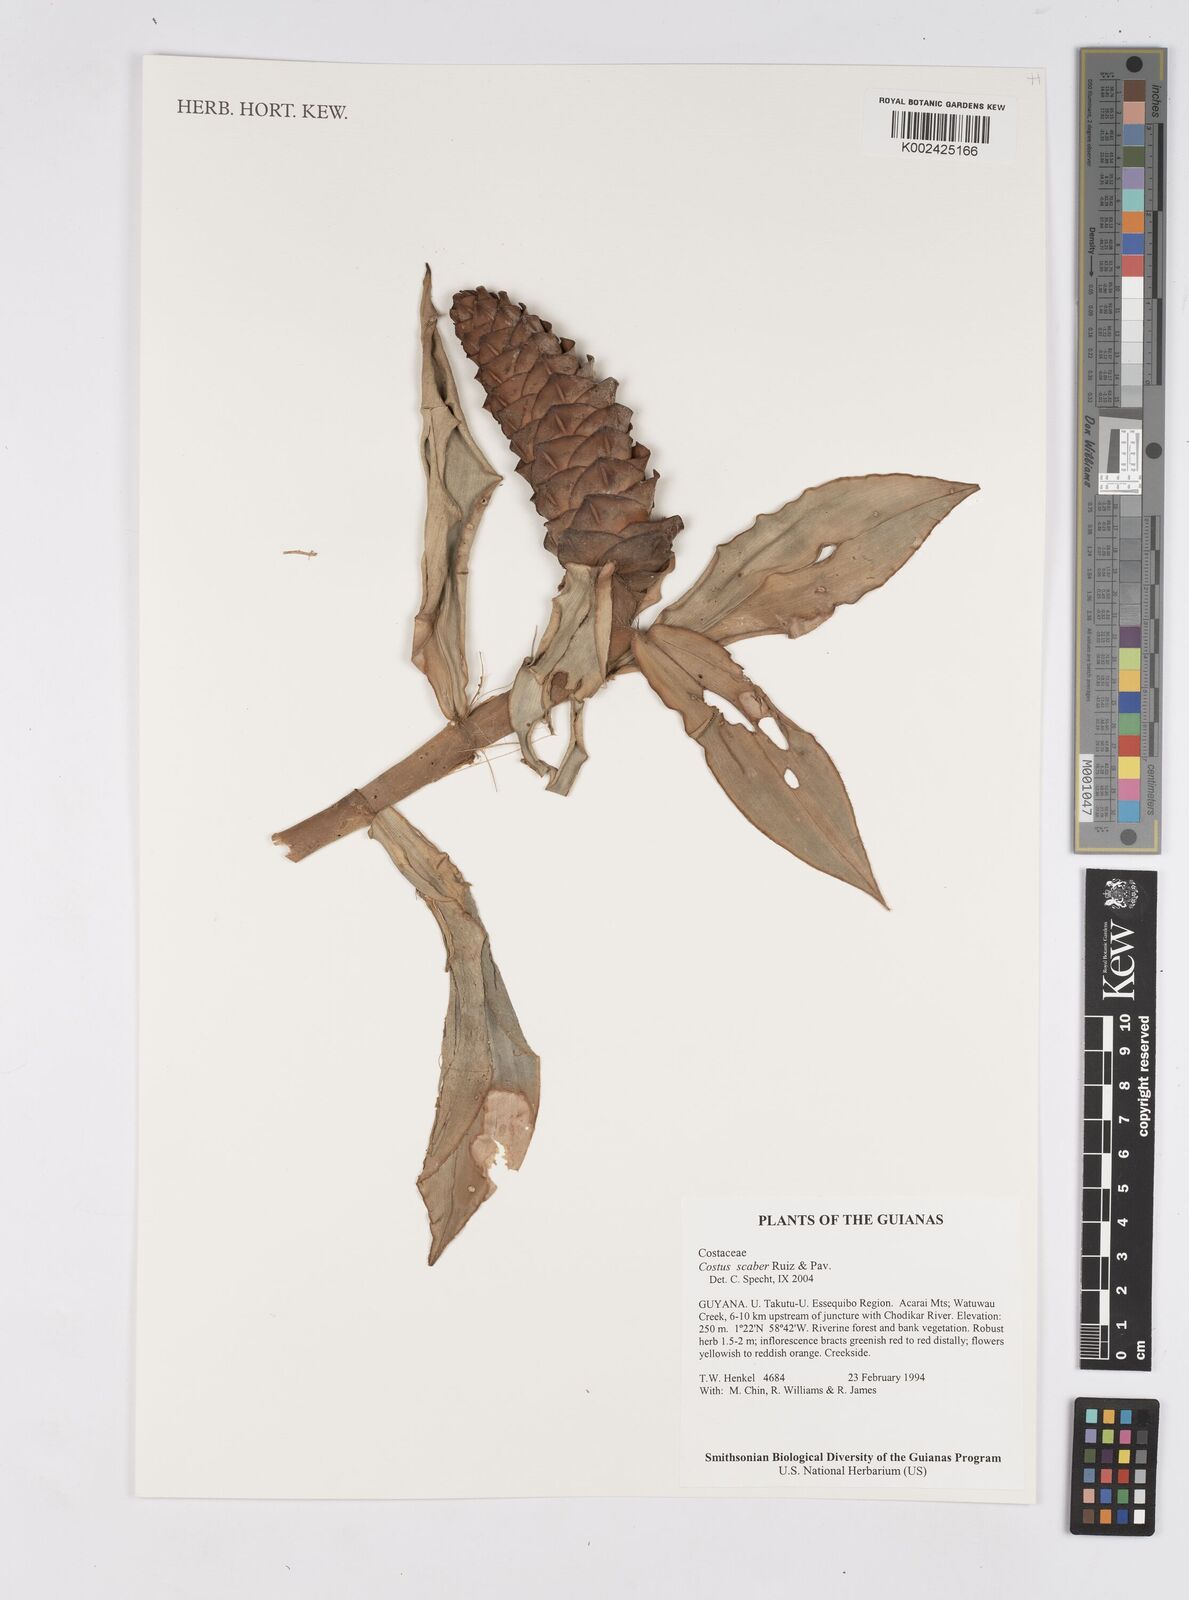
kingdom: Plantae
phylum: Tracheophyta
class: Liliopsida
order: Zingiberales
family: Costaceae
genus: Costus
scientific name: Costus scaber
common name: Spiral head ginger
